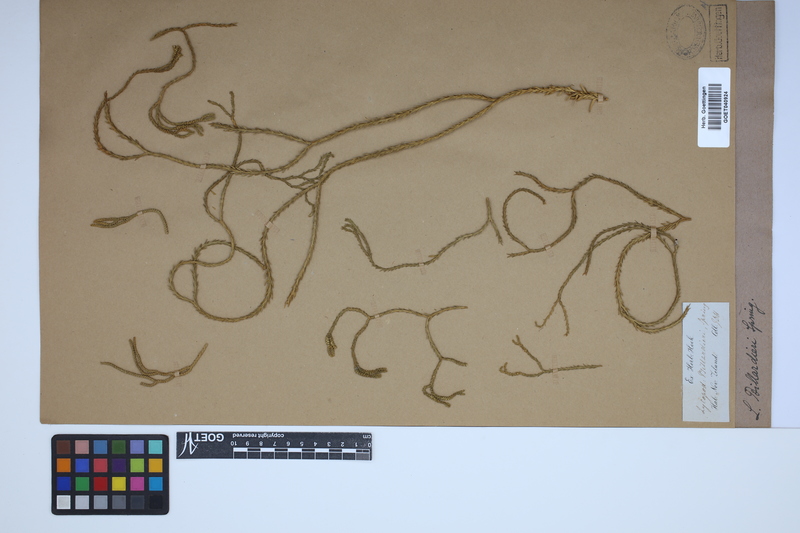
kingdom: Plantae
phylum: Tracheophyta
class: Lycopodiopsida
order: Lycopodiales
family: Lycopodiaceae
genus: Phlegmariurus
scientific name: Phlegmariurus varius
